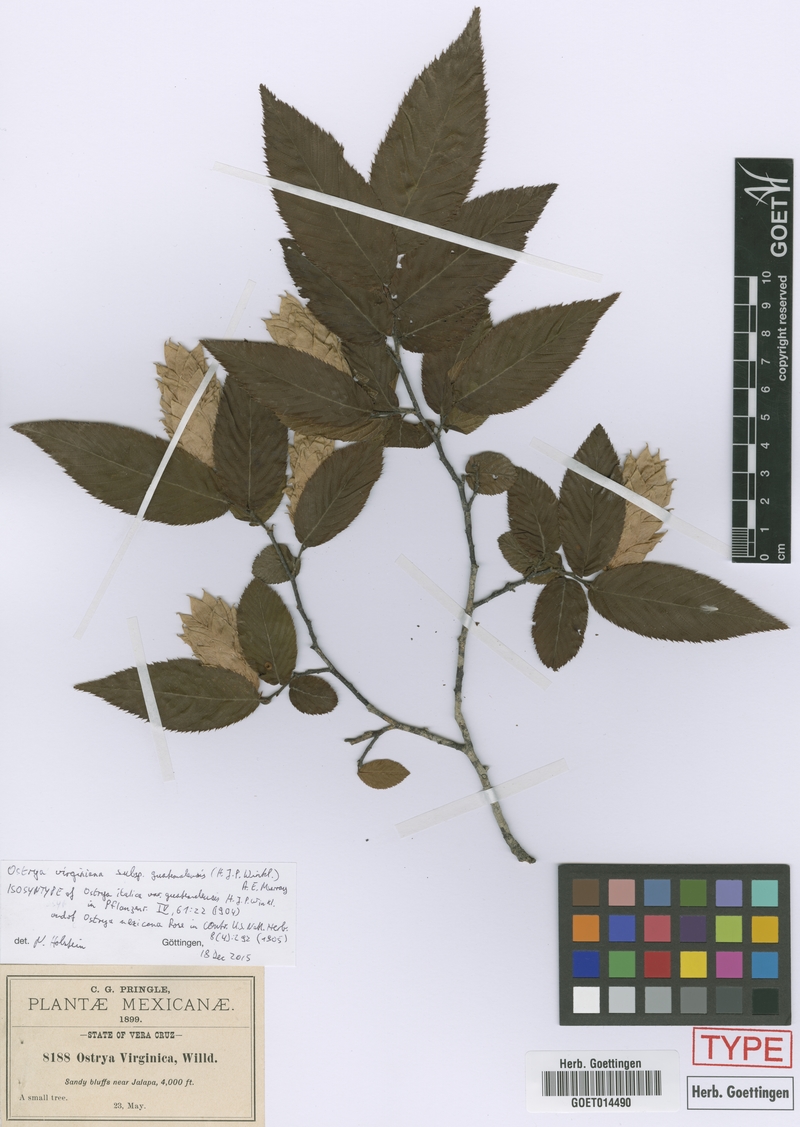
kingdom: Plantae
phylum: Tracheophyta
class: Magnoliopsida
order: Fagales
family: Betulaceae
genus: Ostrya
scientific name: Ostrya virginiana
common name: Ironwood
